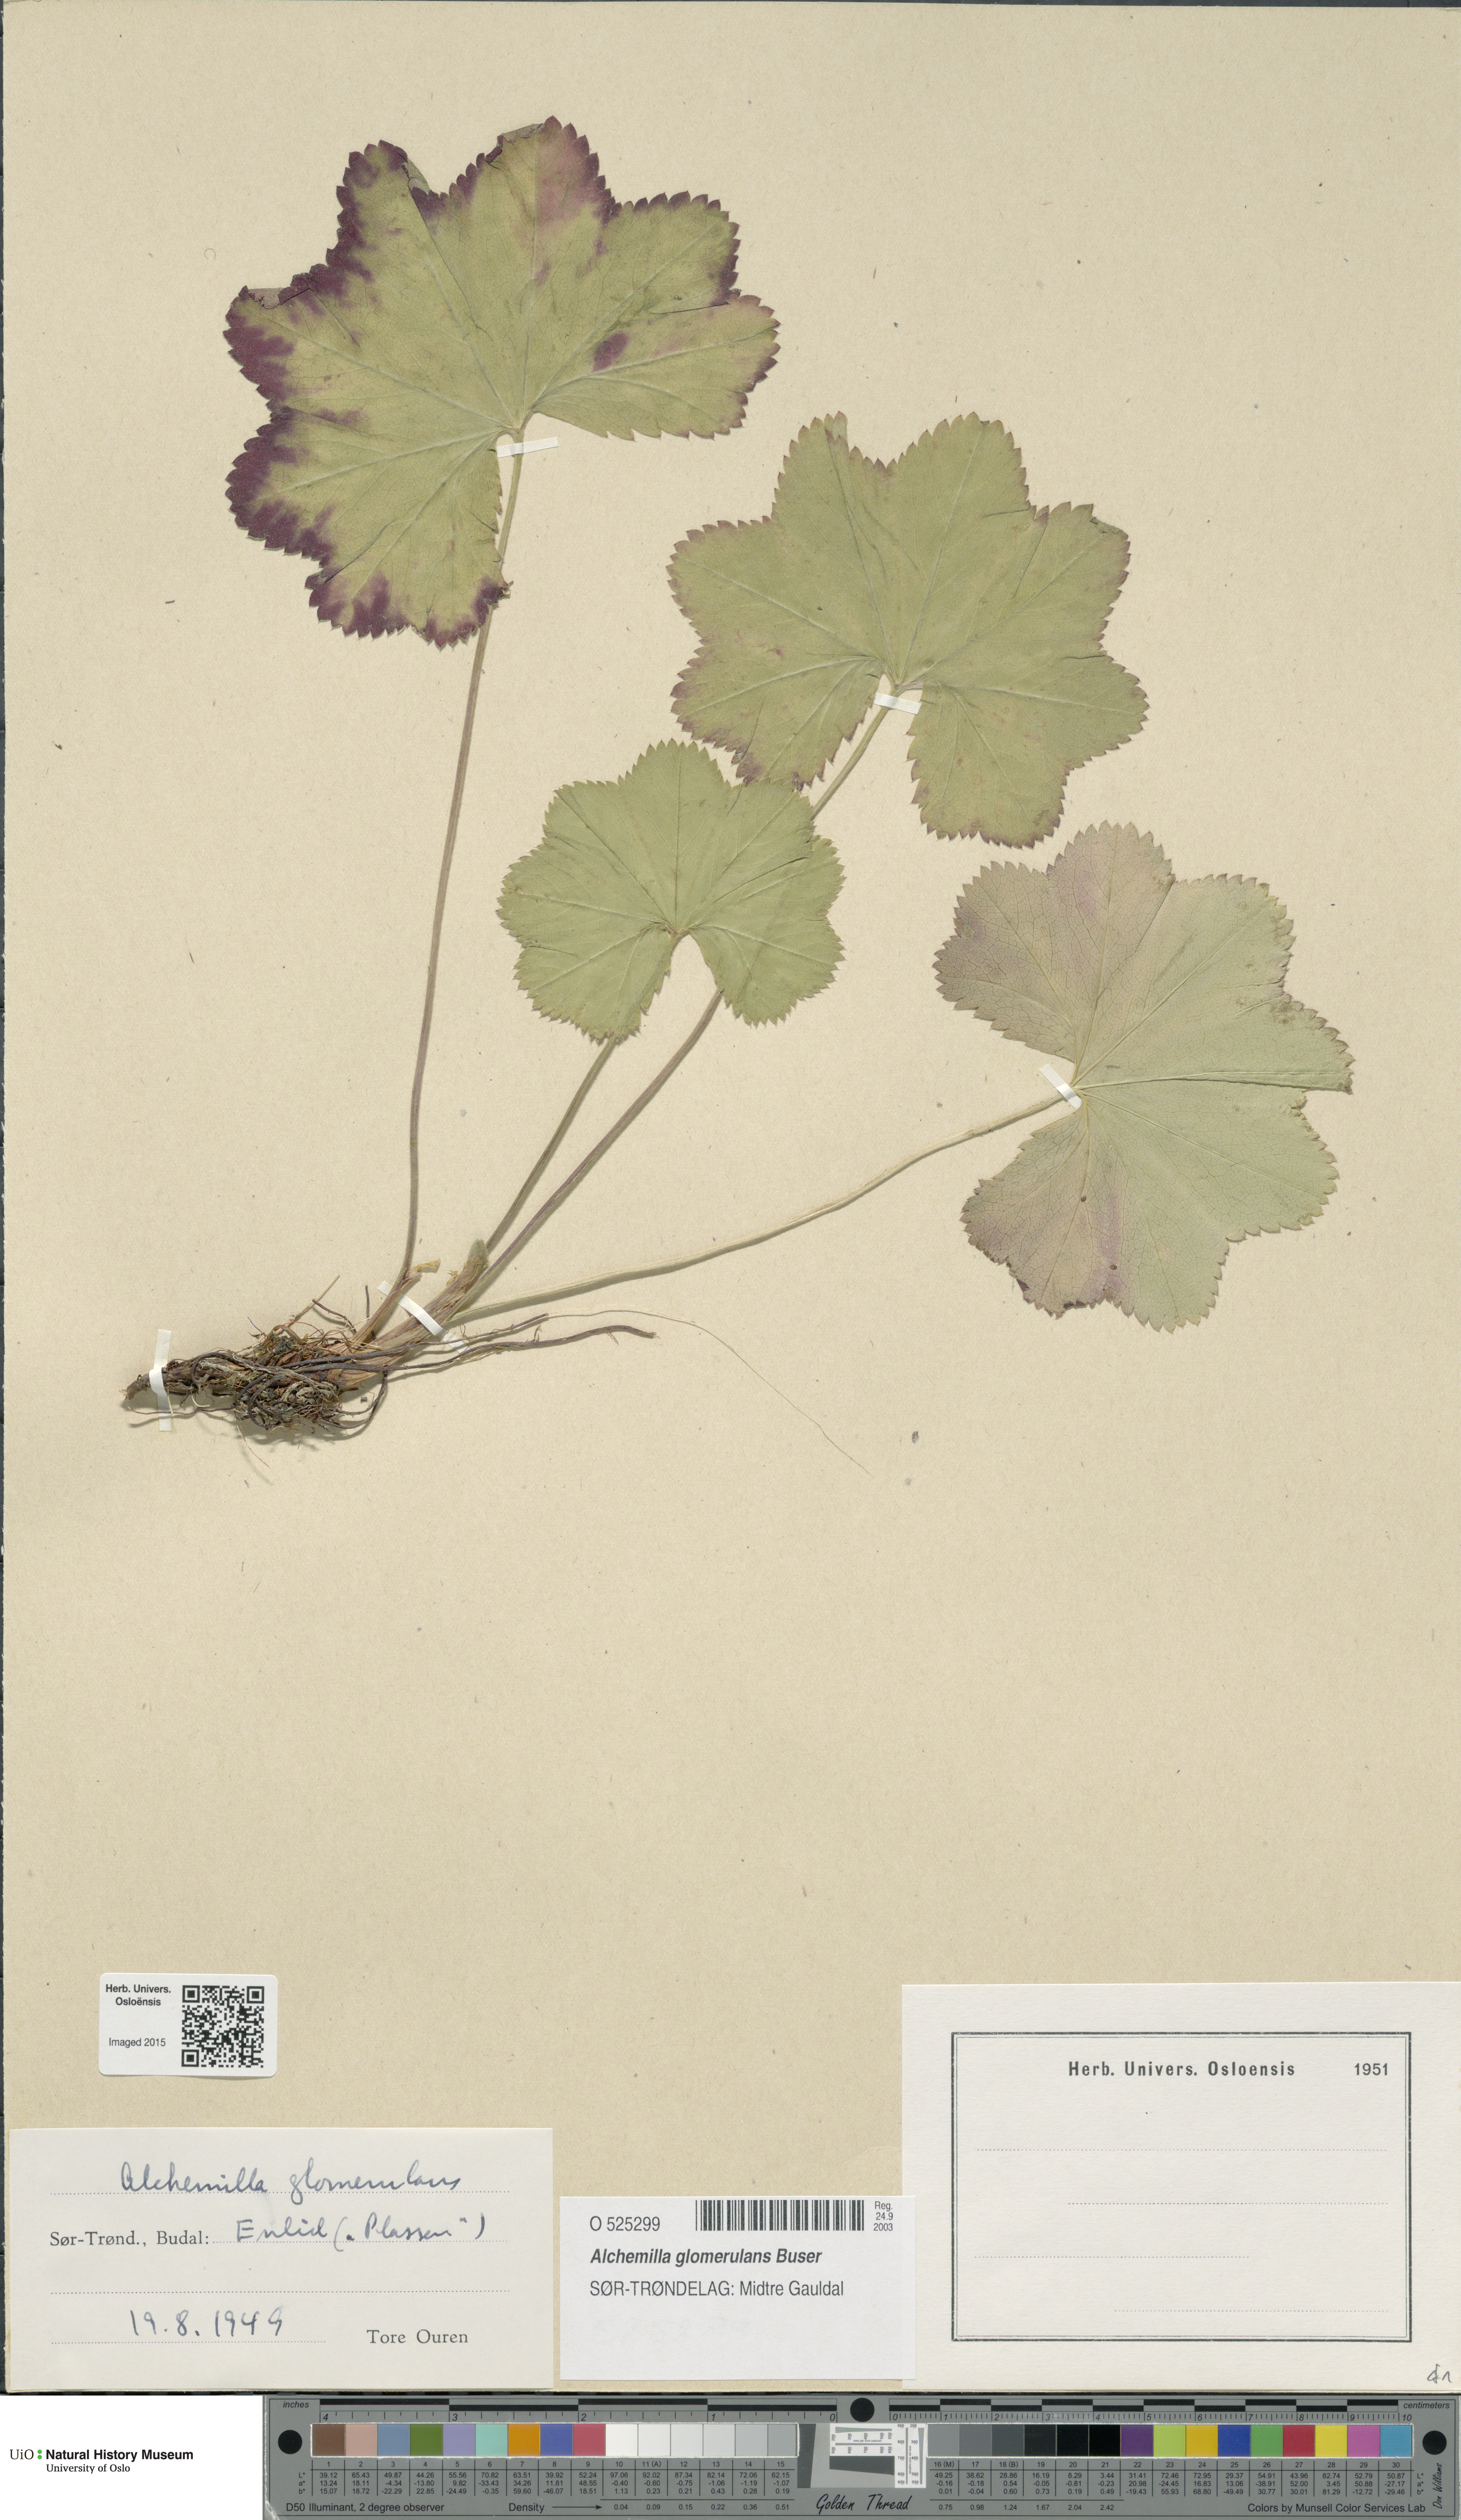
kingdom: Plantae
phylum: Tracheophyta
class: Magnoliopsida
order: Rosales
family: Rosaceae
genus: Alchemilla
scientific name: Alchemilla glomerulans
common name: Clustered lady's mantle
